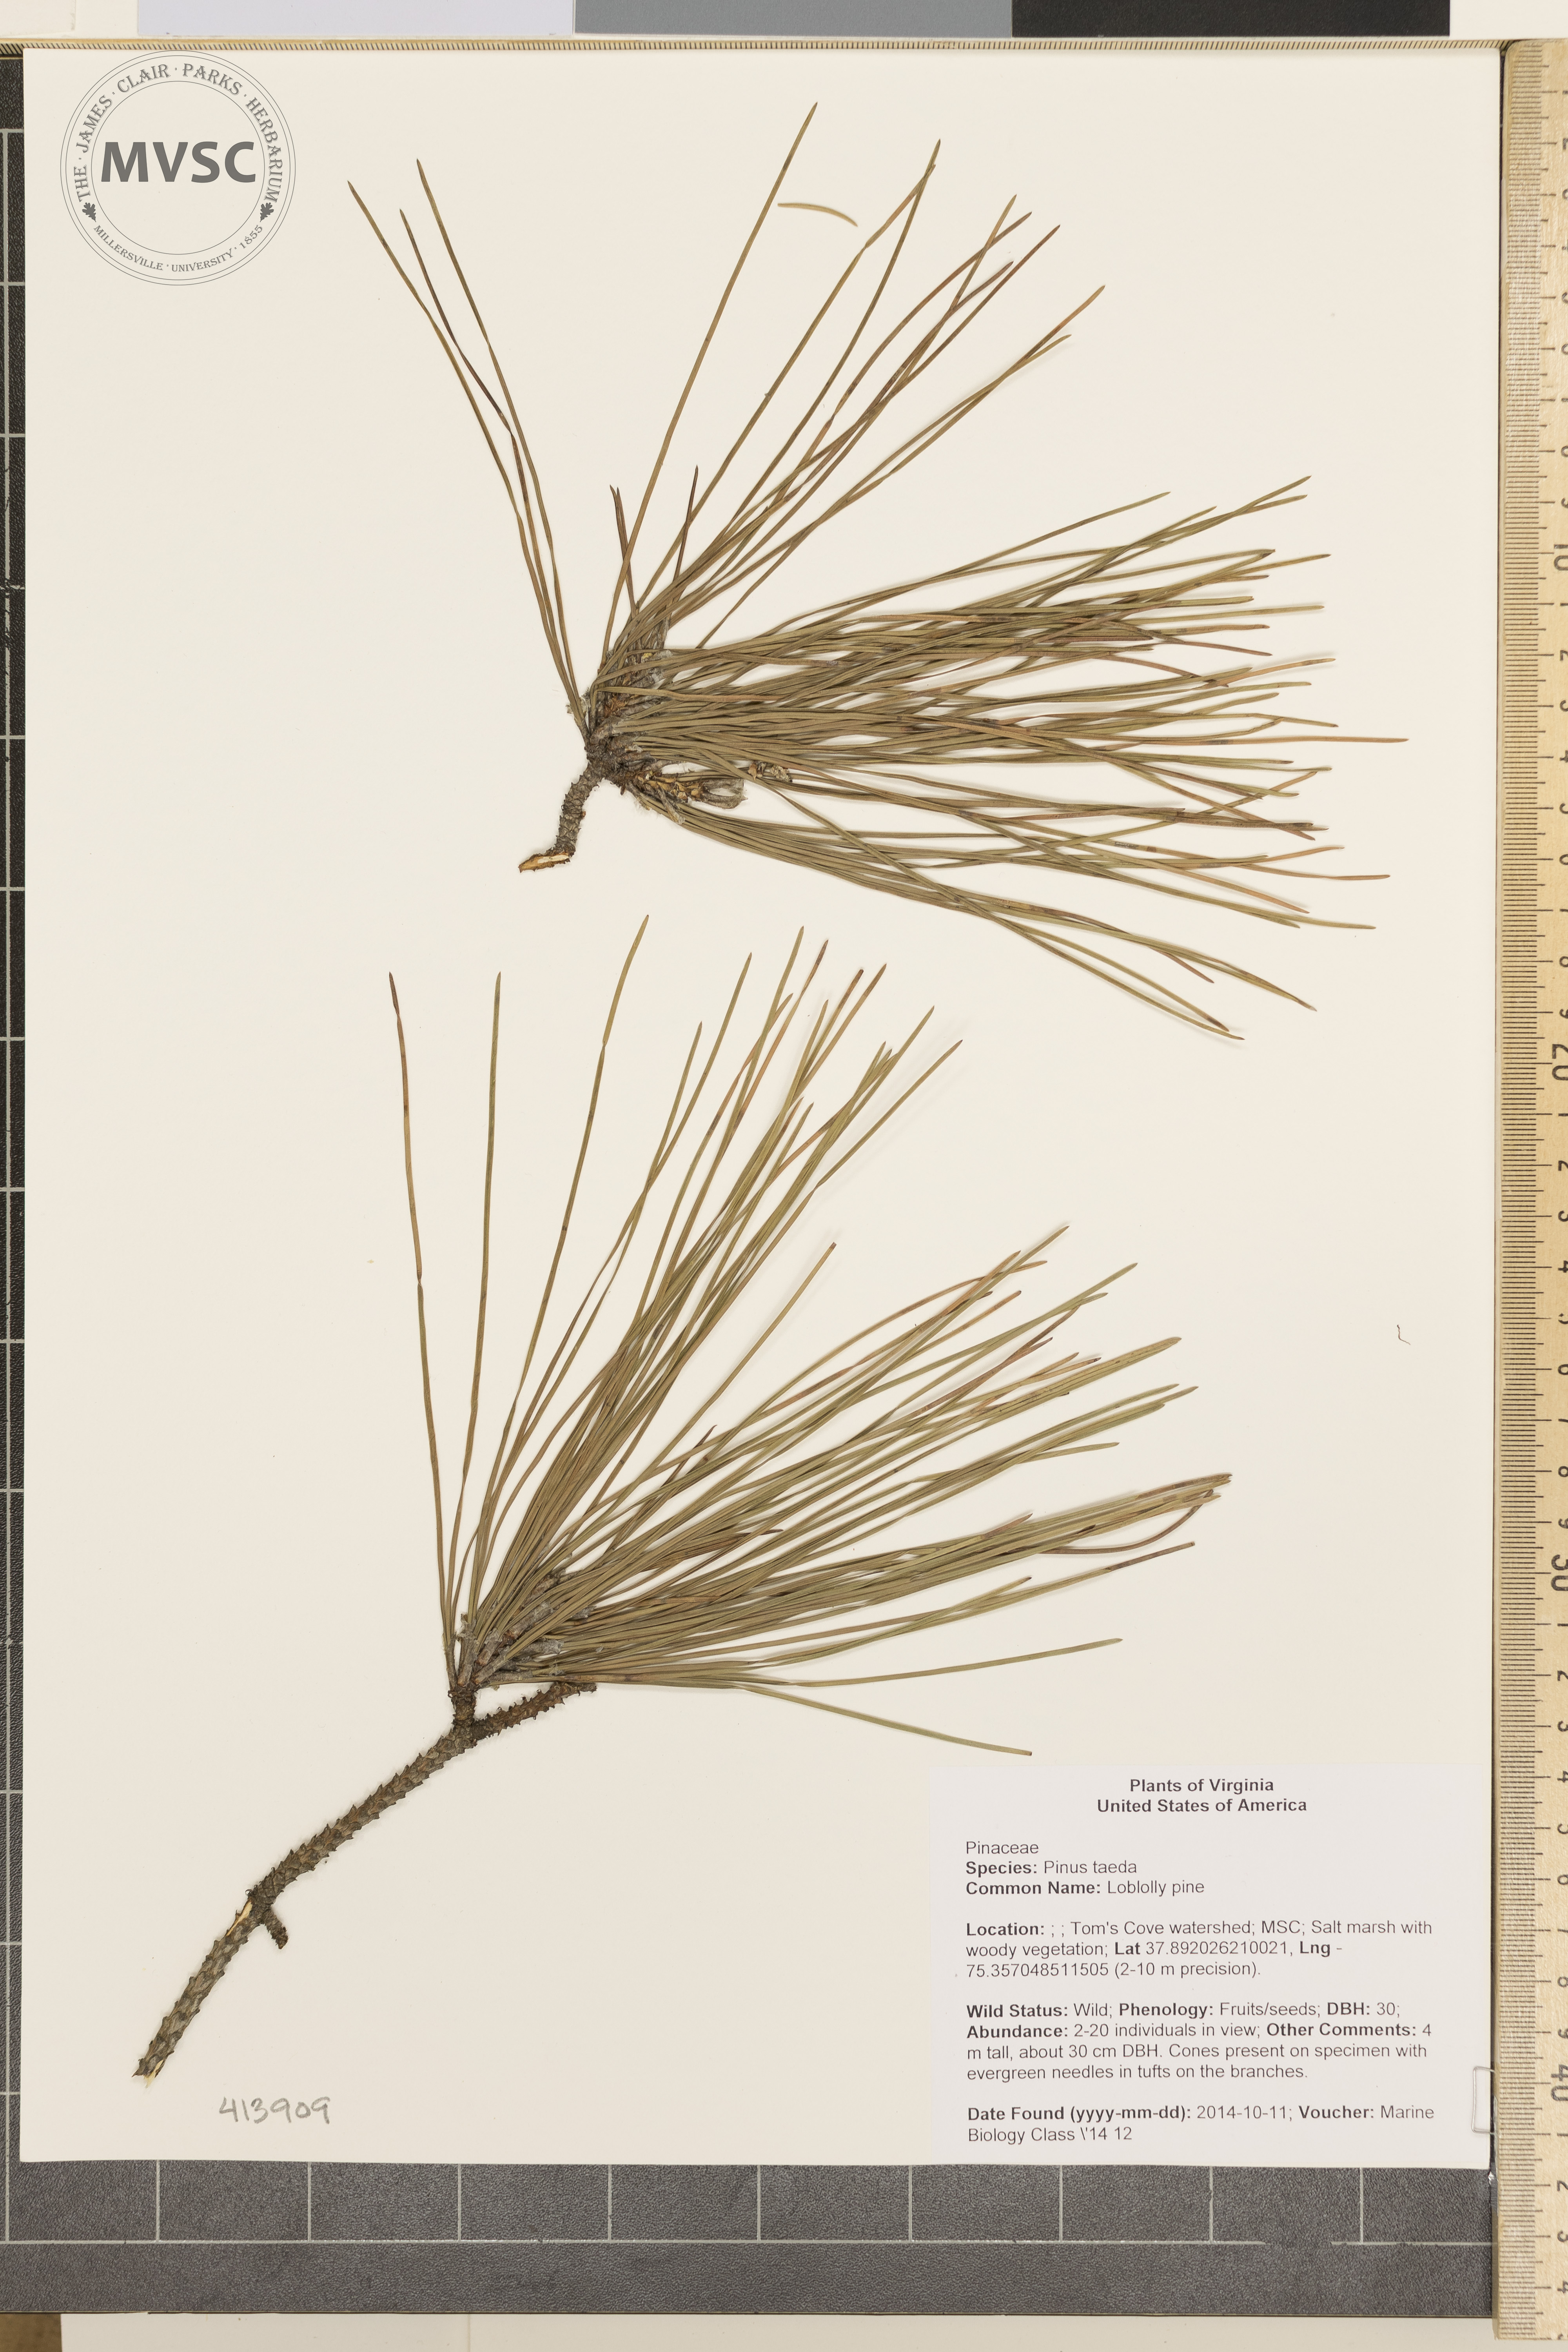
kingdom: Plantae
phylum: Tracheophyta
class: Pinopsida
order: Pinales
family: Pinaceae
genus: Pinus
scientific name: Pinus taeda
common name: Loblolly pine
